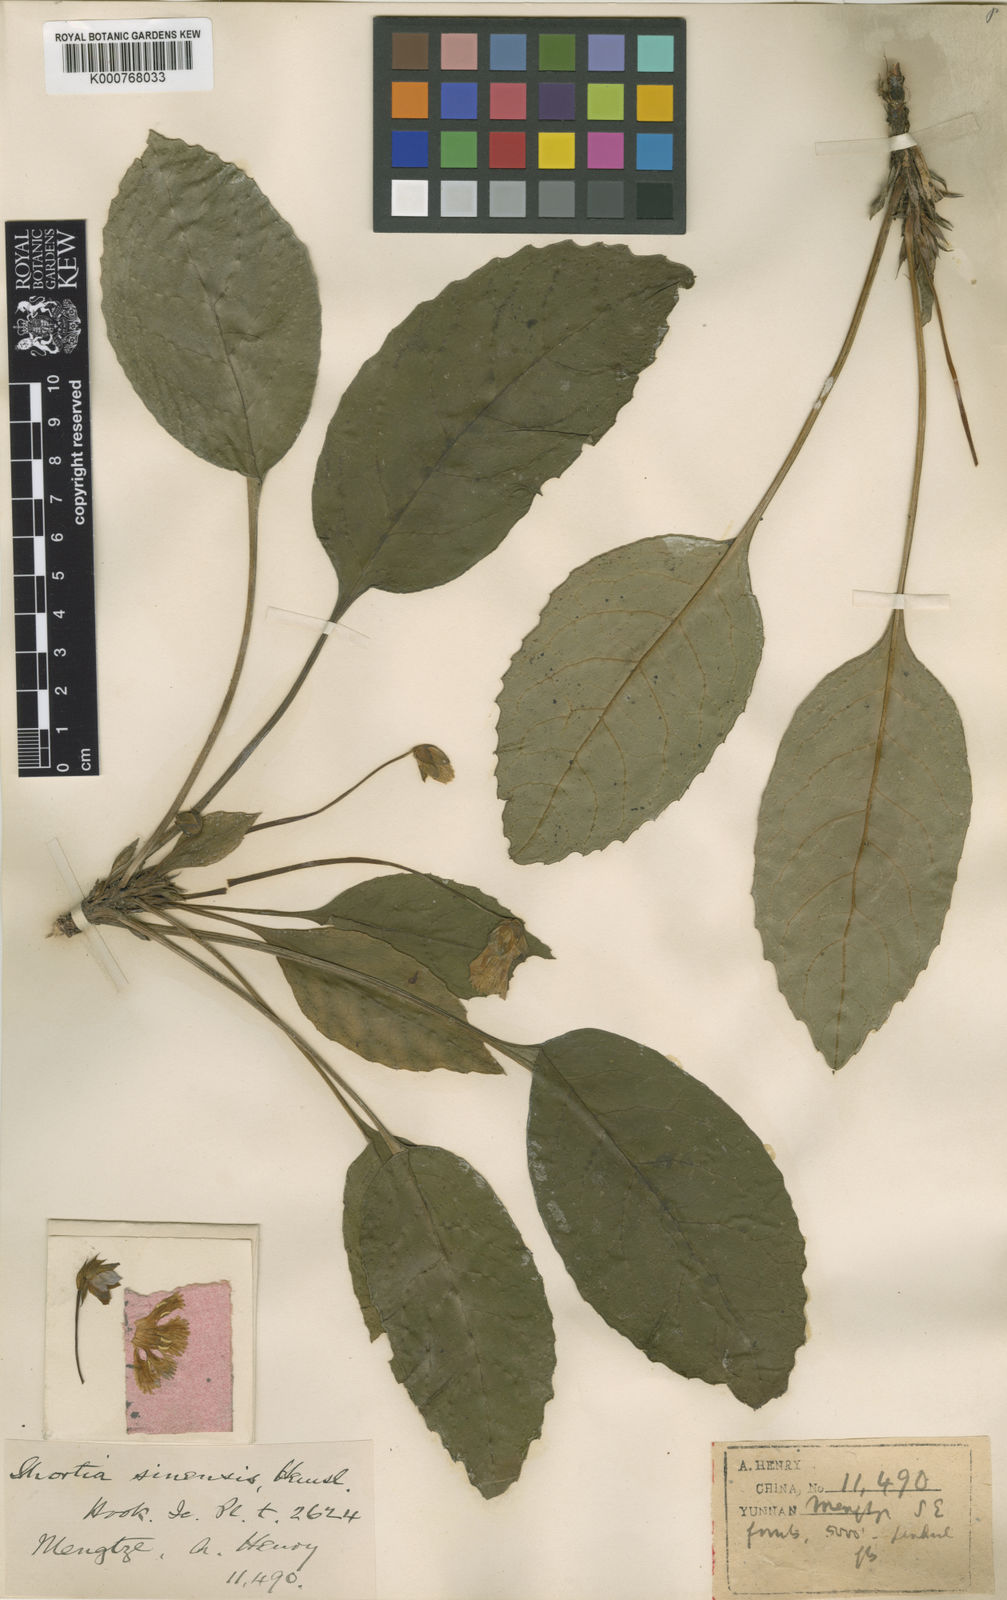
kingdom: Plantae
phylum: Tracheophyta
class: Magnoliopsida
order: Ericales
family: Diapensiaceae
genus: Shortia
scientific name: Shortia sinensis
